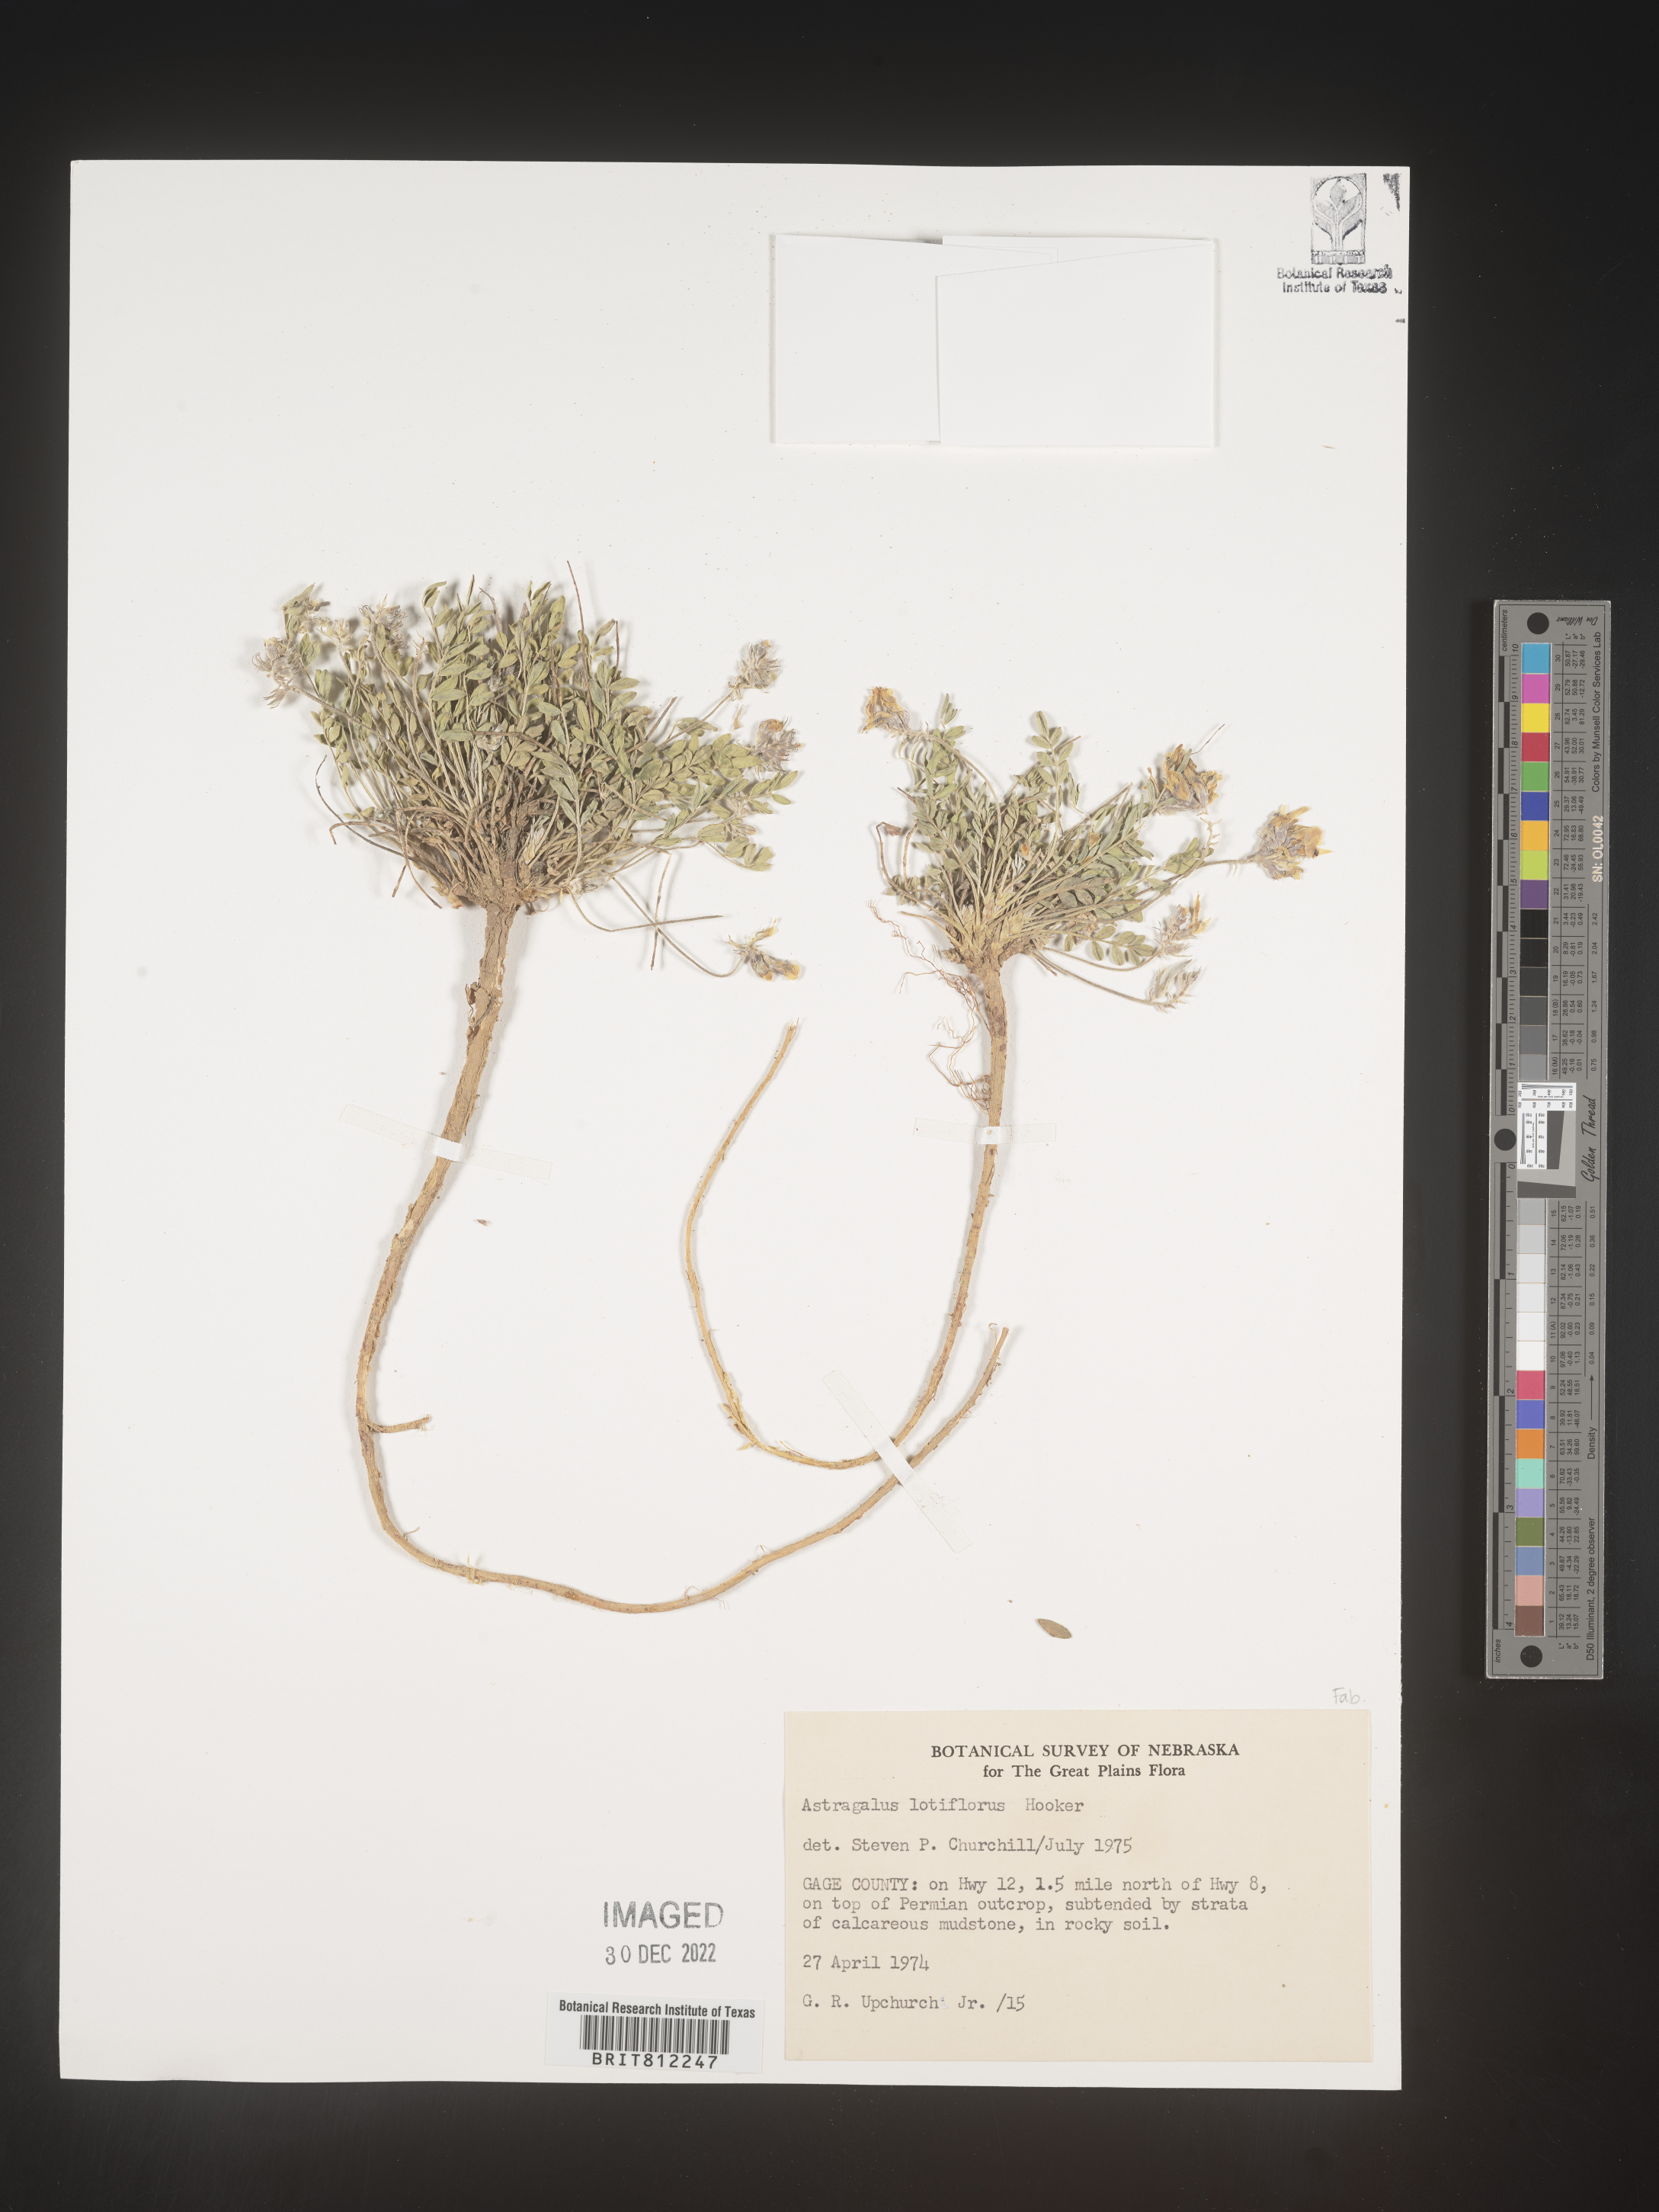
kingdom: Plantae
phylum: Tracheophyta
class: Magnoliopsida
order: Fabales
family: Fabaceae
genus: Astragalus
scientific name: Astragalus lotiflorus
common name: Lotus milk-vetch
